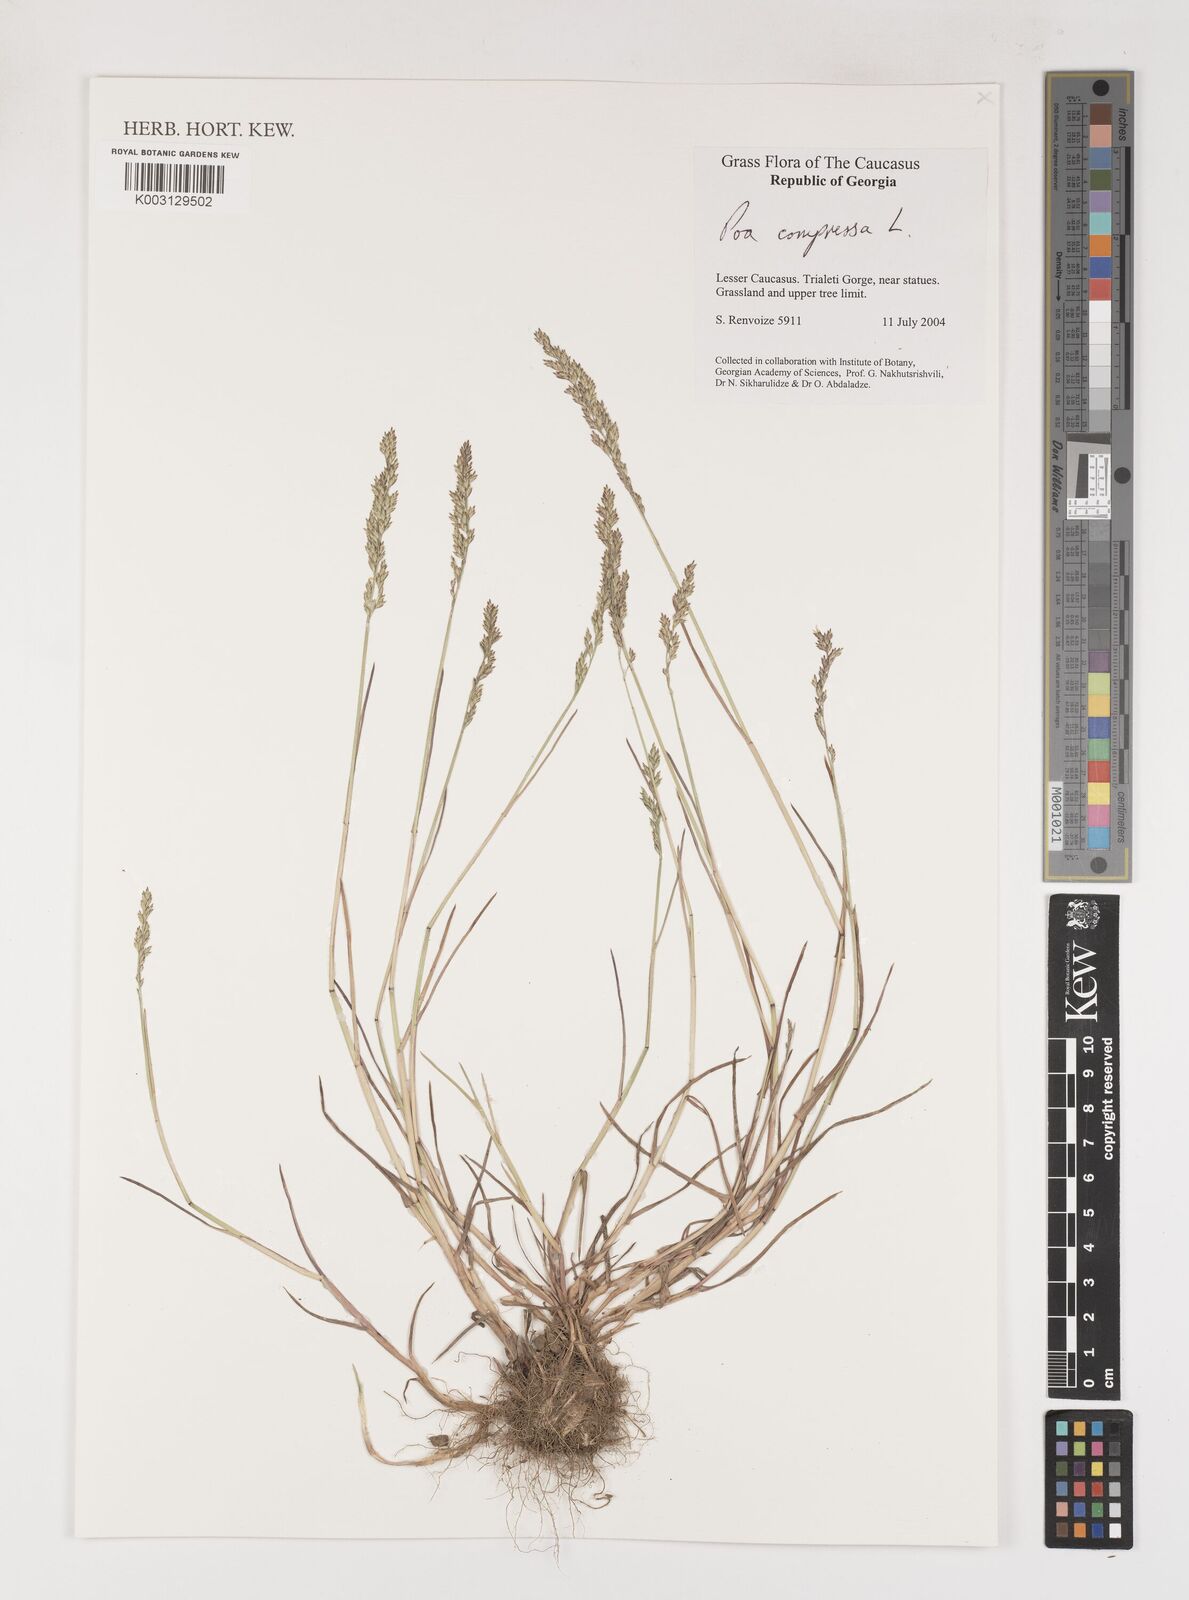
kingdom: Plantae
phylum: Tracheophyta
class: Liliopsida
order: Poales
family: Poaceae
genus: Poa
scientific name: Poa compressa
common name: Canada bluegrass
